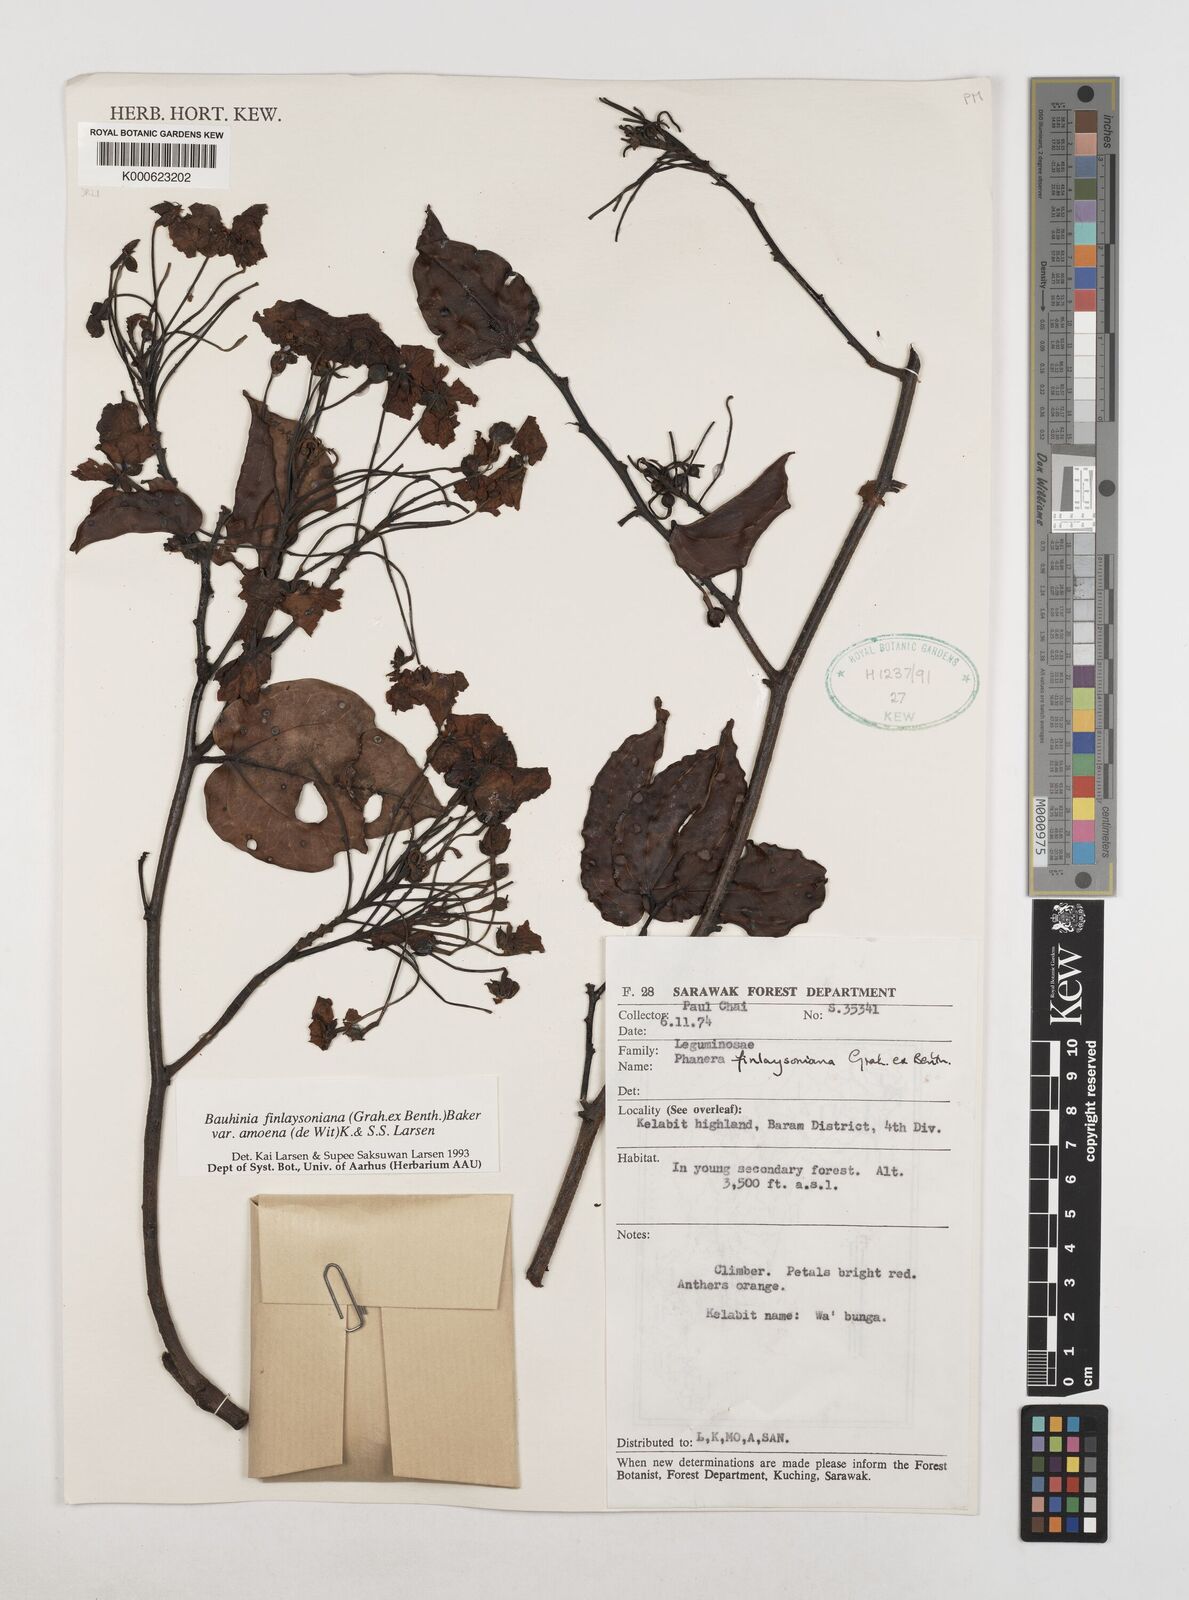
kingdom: Plantae
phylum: Tracheophyta
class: Magnoliopsida
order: Fabales
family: Fabaceae
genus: Phanera
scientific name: Phanera finlaysoniana
